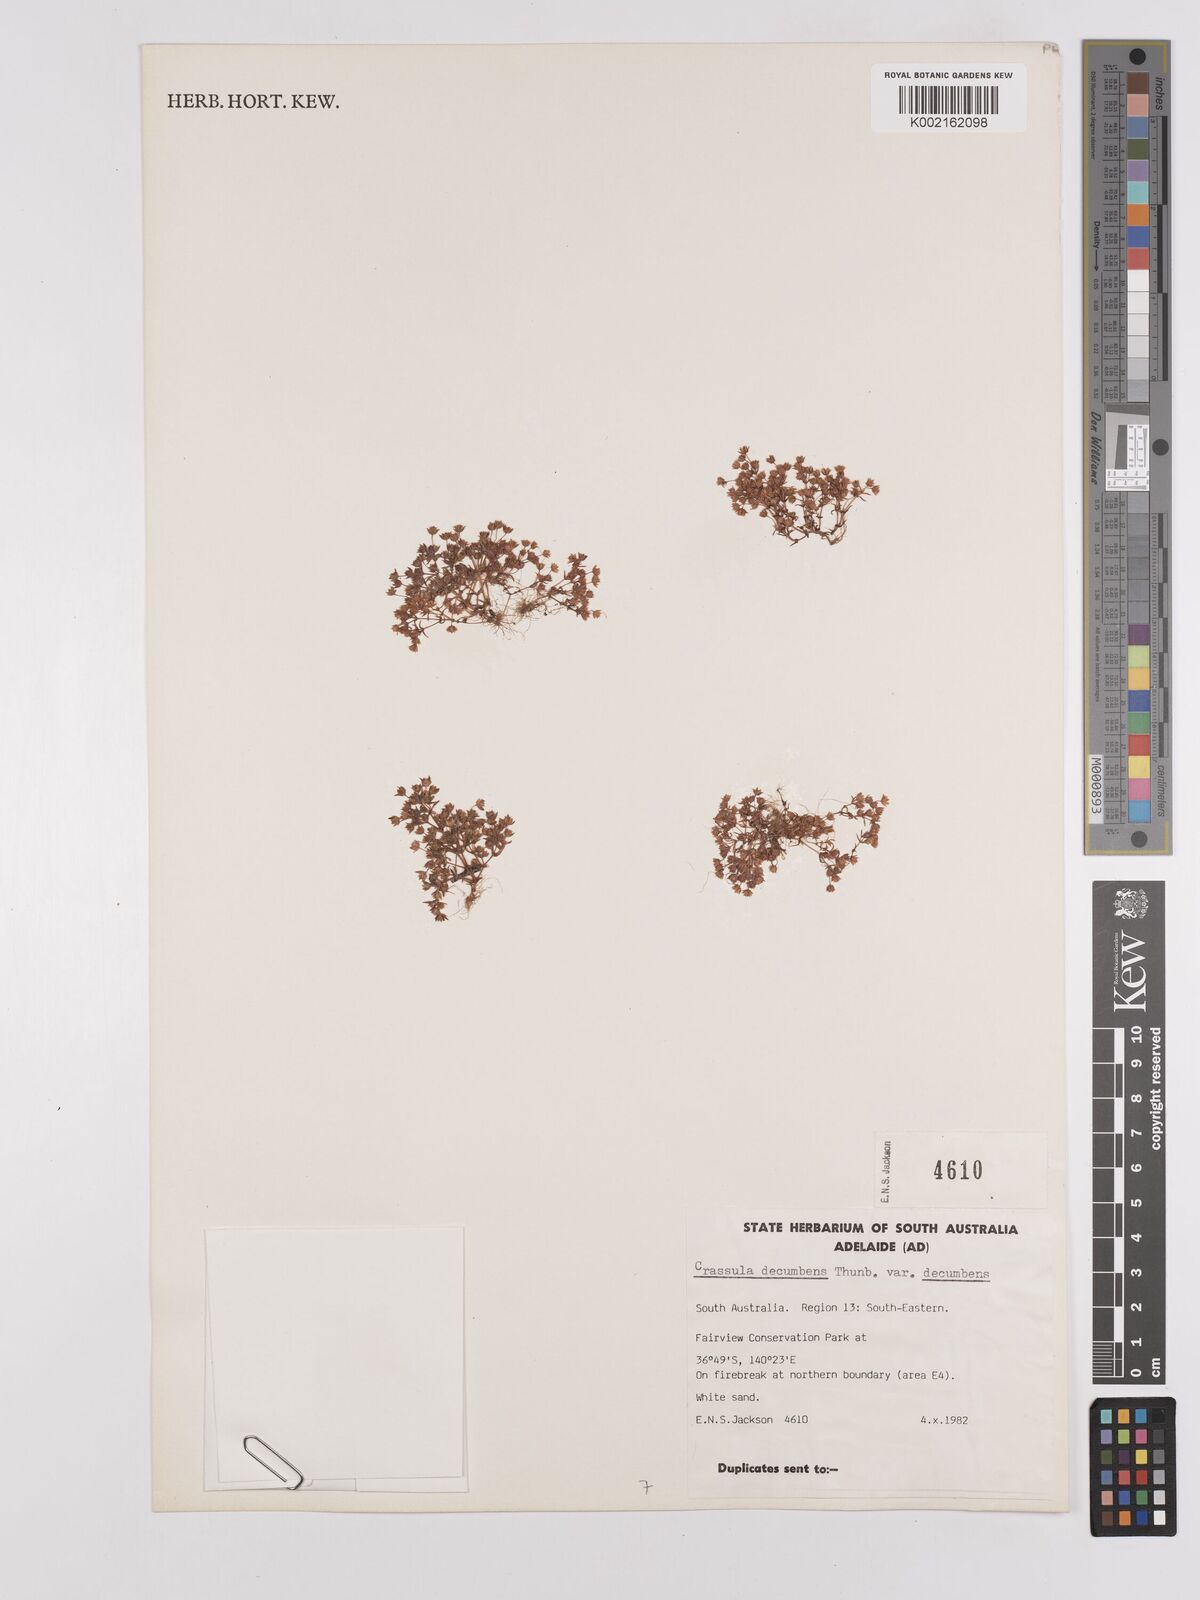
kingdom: Plantae
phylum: Tracheophyta
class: Magnoliopsida
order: Saxifragales
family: Crassulaceae
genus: Crassula
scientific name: Crassula decumbens
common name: Scilly pigmyweed
